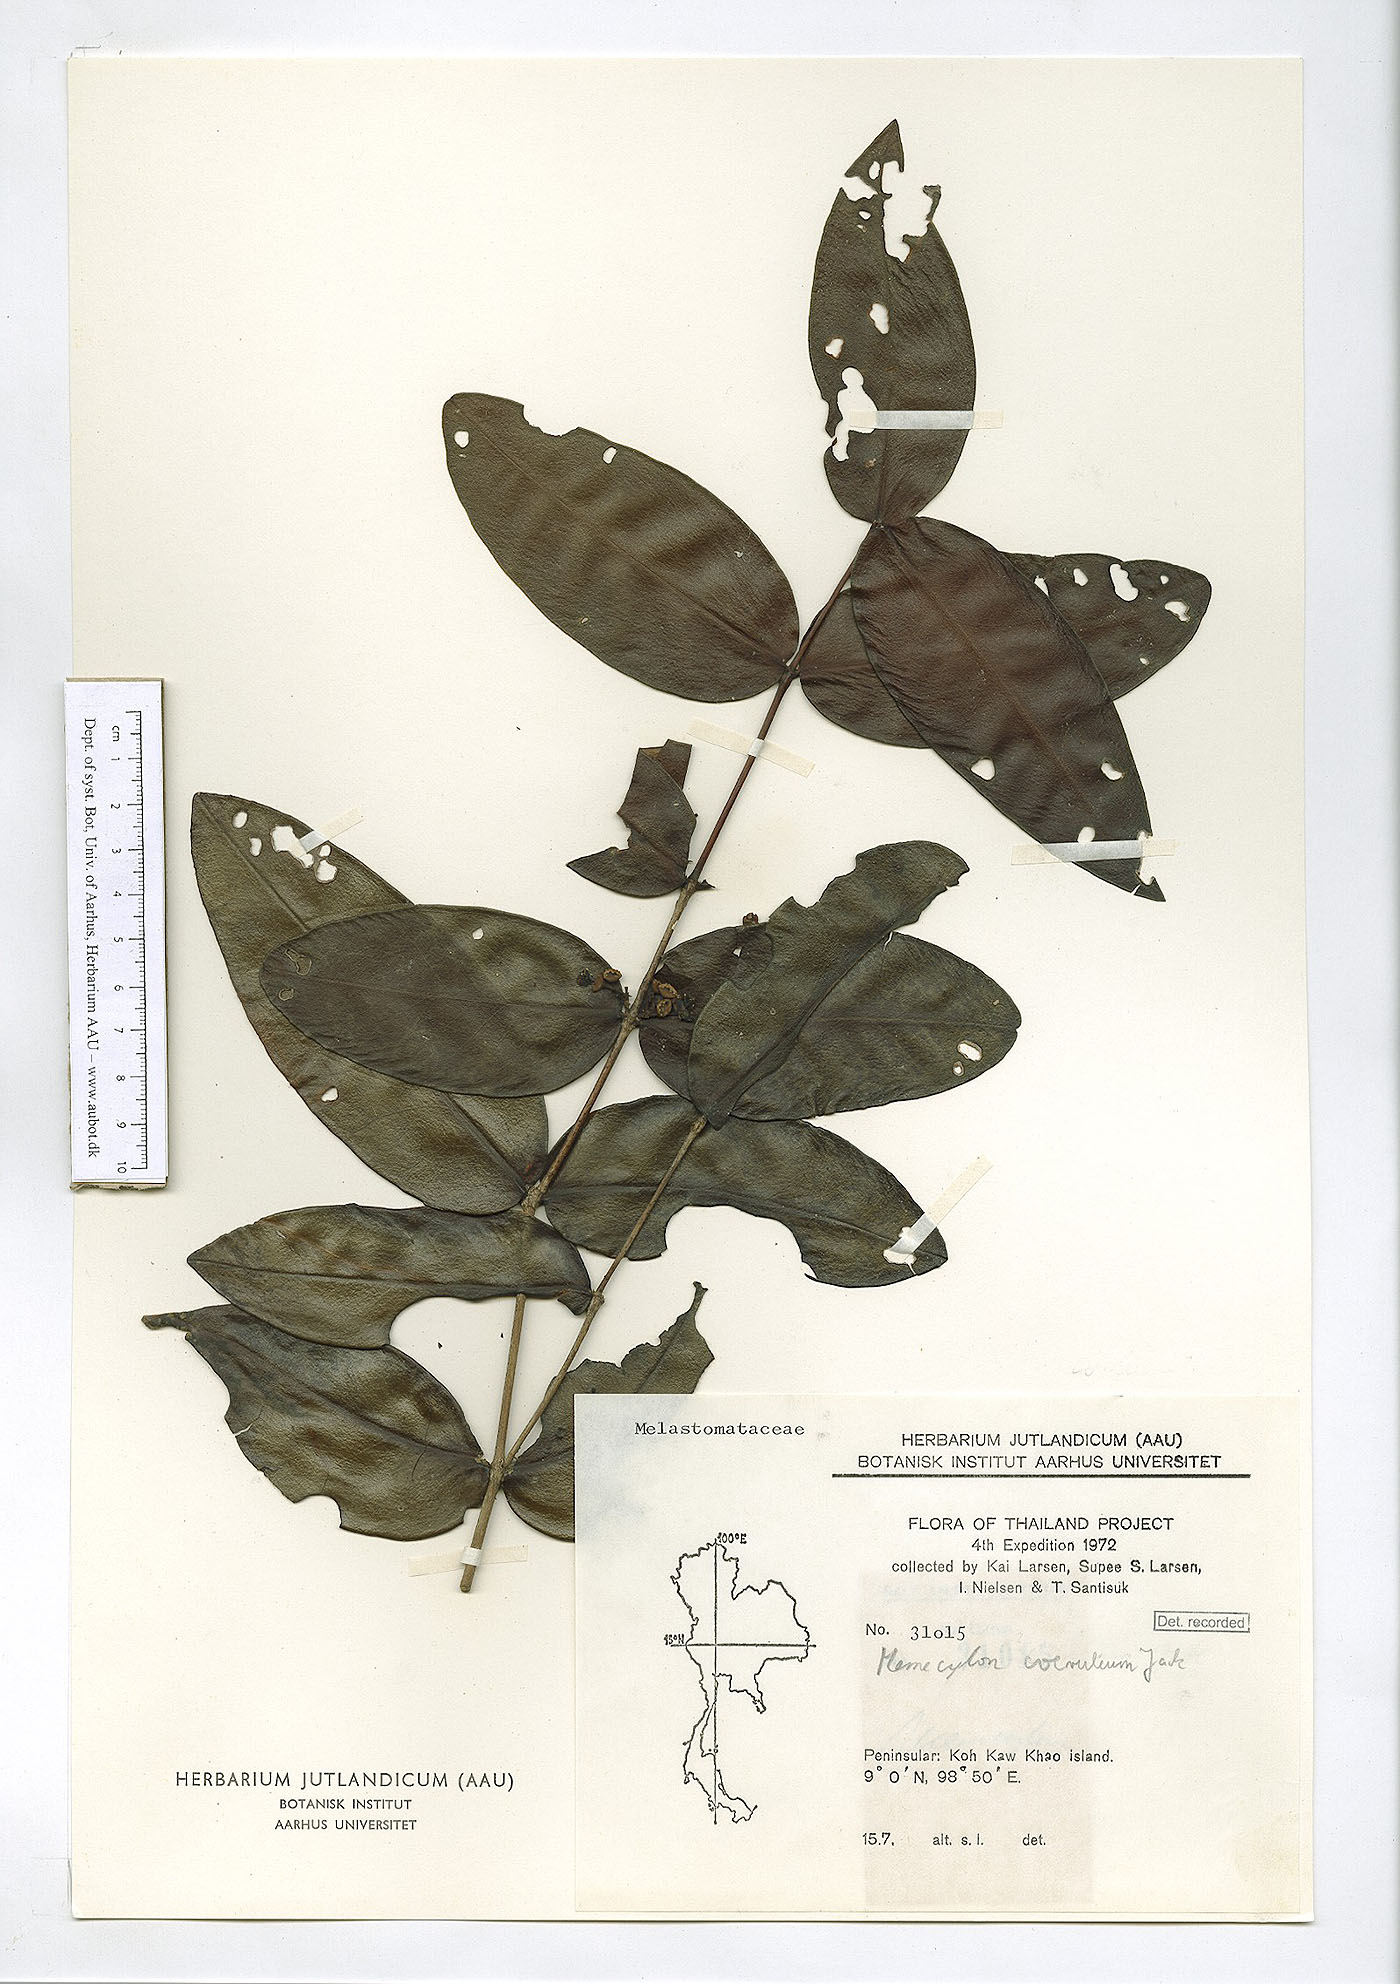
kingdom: Plantae
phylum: Tracheophyta
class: Magnoliopsida
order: Myrtales
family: Melastomataceae
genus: Memecylon
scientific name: Memecylon caeruleum
